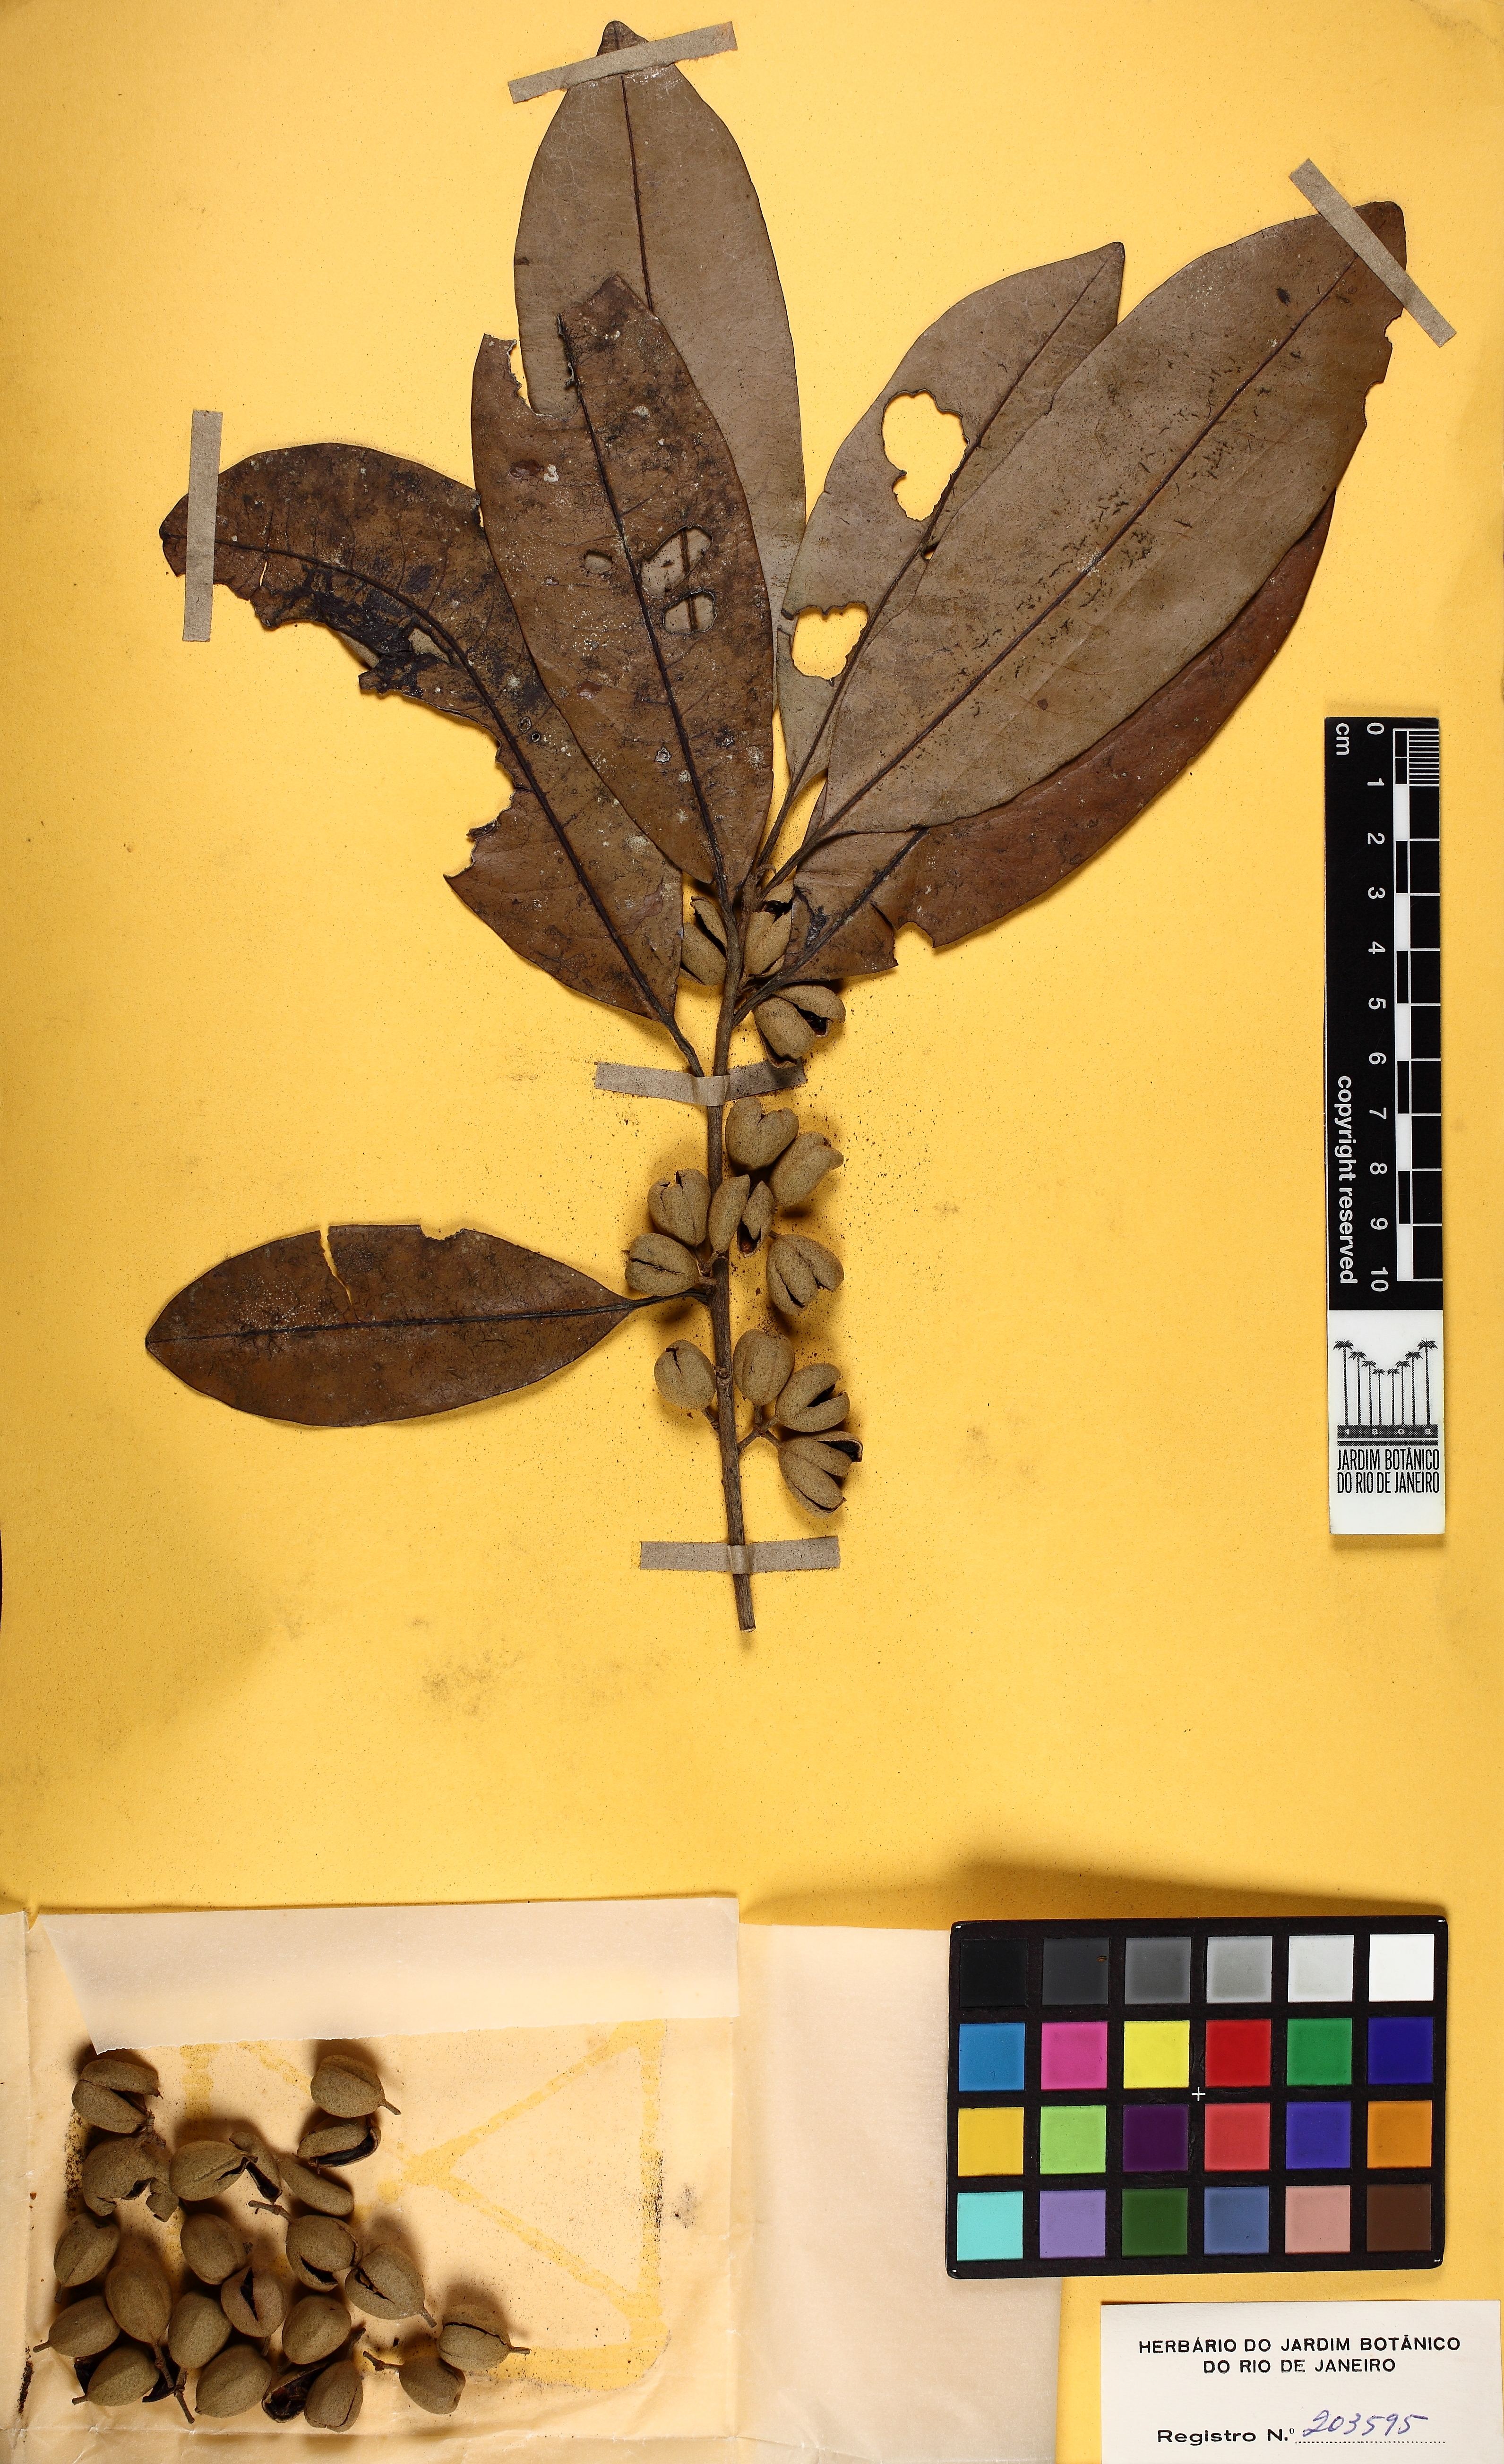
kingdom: Plantae
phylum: Tracheophyta
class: Magnoliopsida
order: Malpighiales
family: Salicaceae
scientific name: Salicaceae
